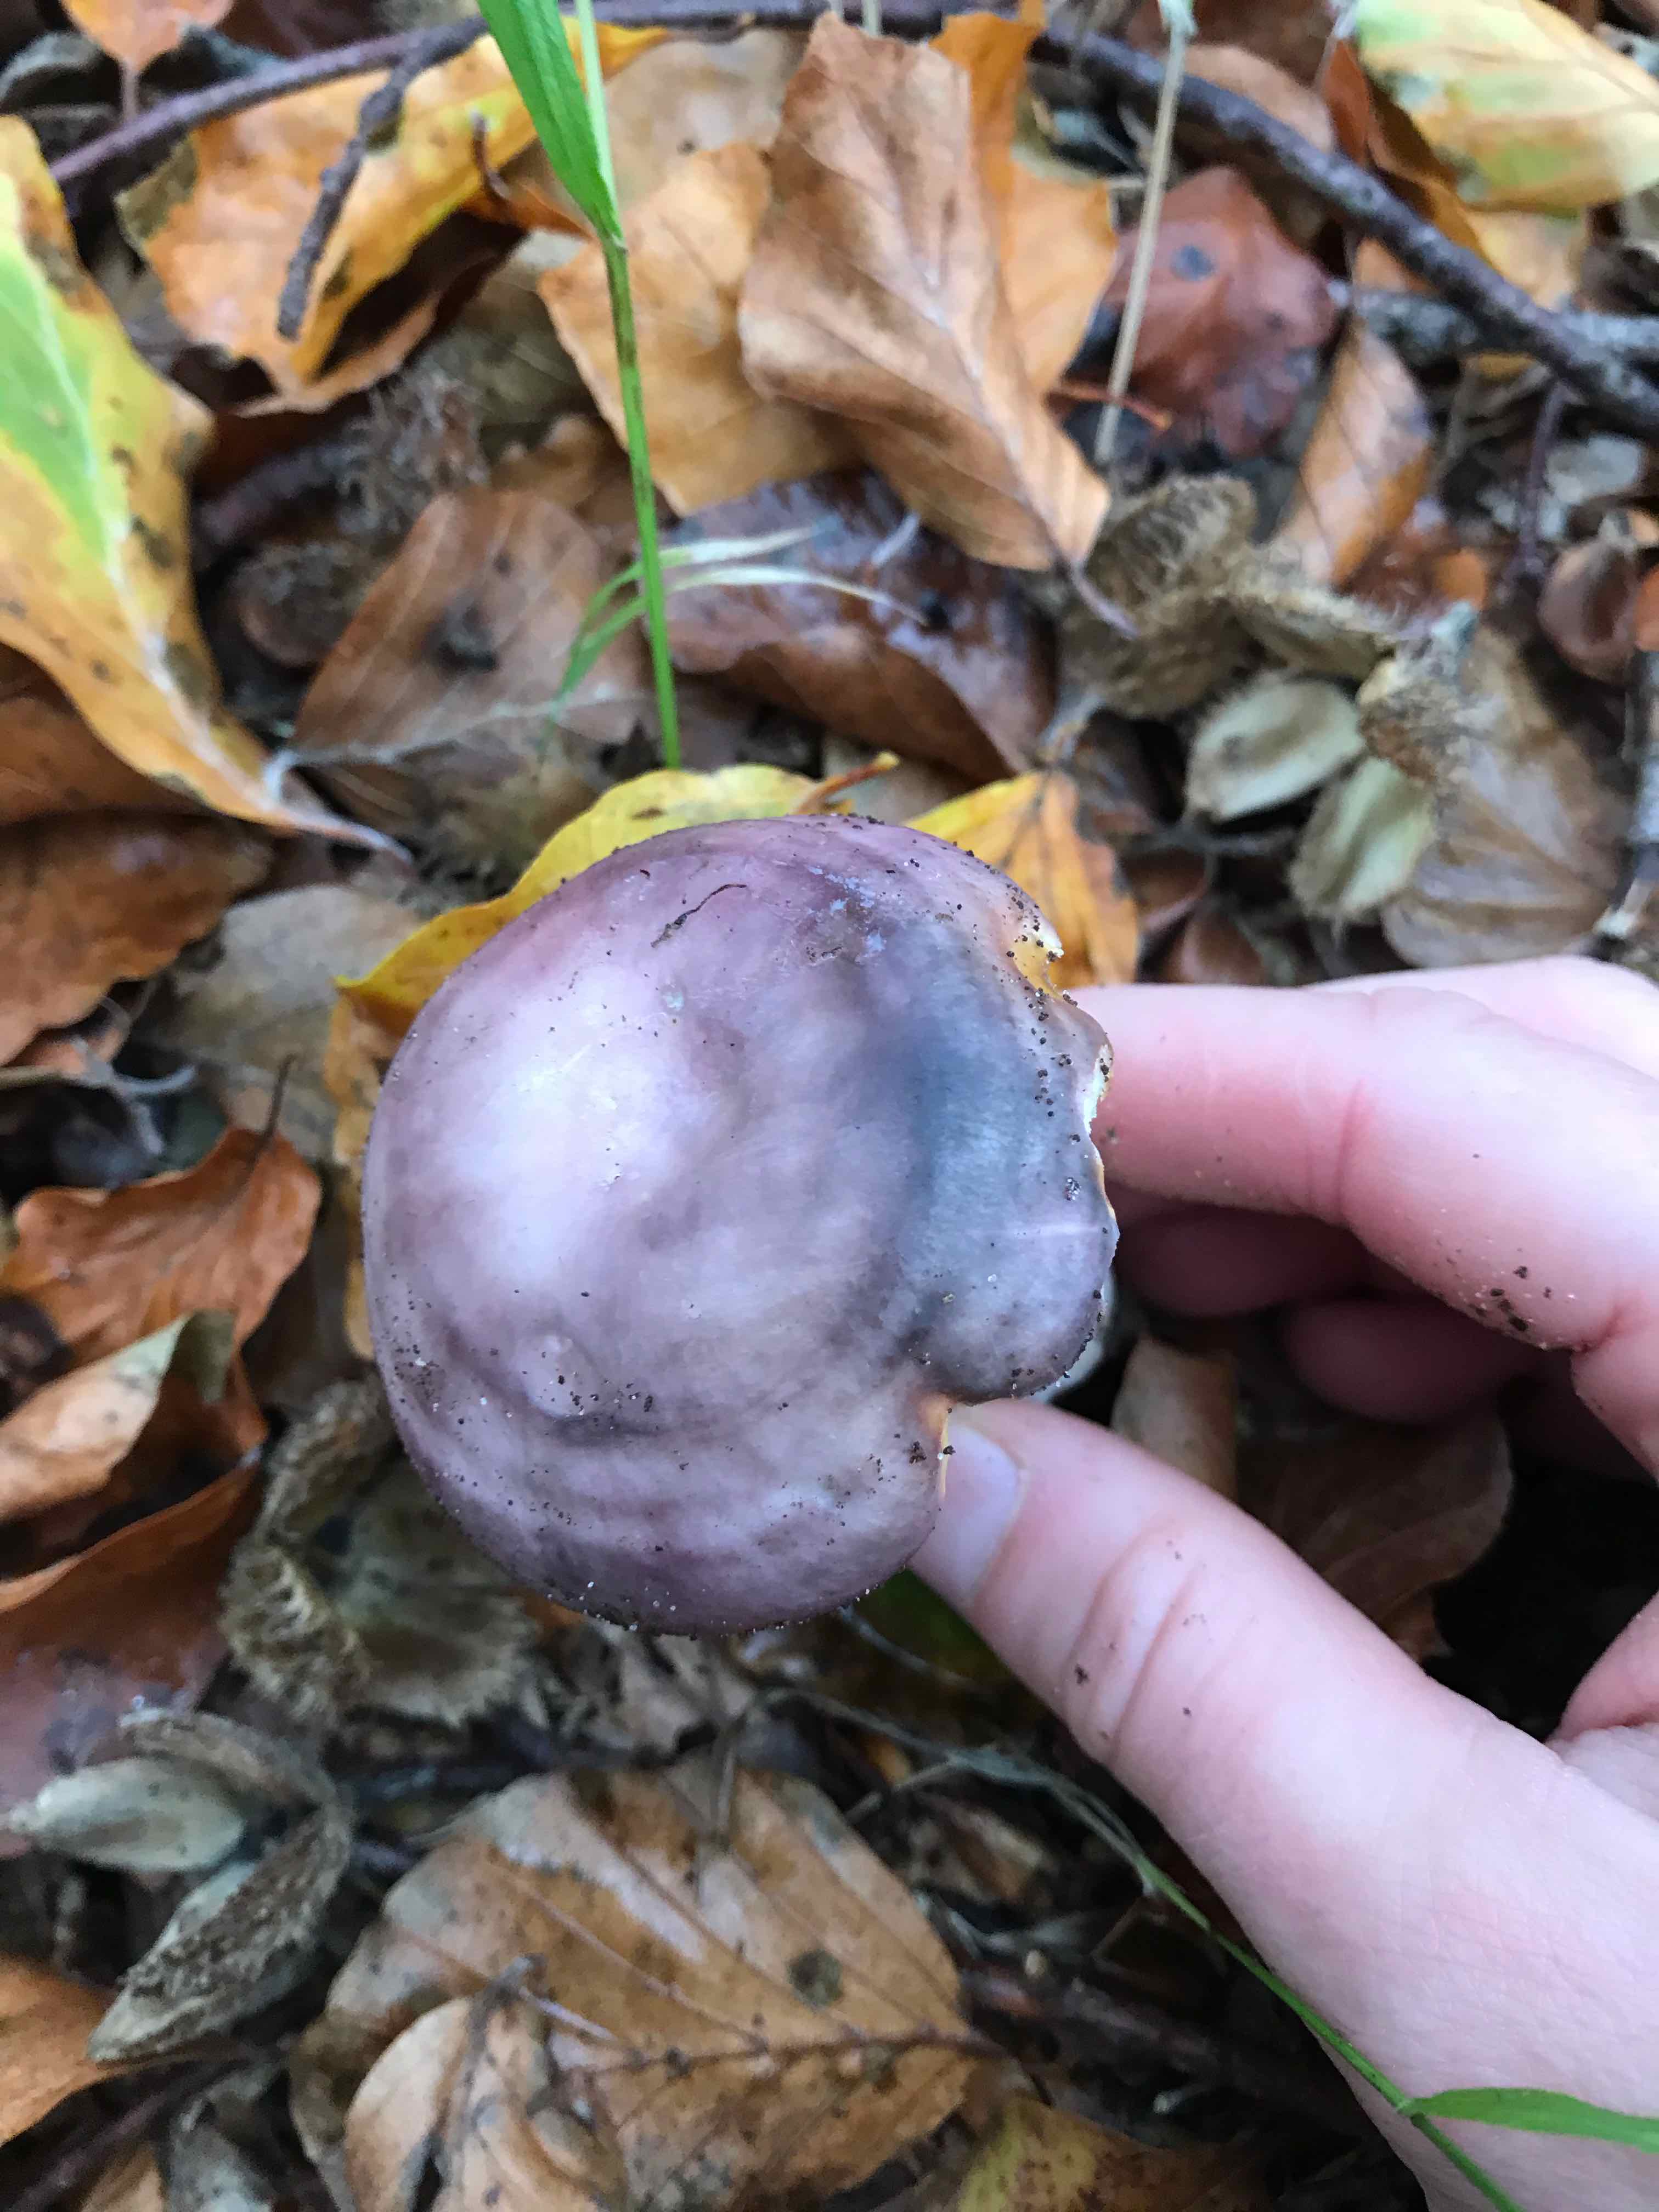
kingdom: Fungi
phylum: Basidiomycota
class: Agaricomycetes
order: Russulales
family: Russulaceae
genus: Russula
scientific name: Russula cyanoxantha
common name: broget skørhat
